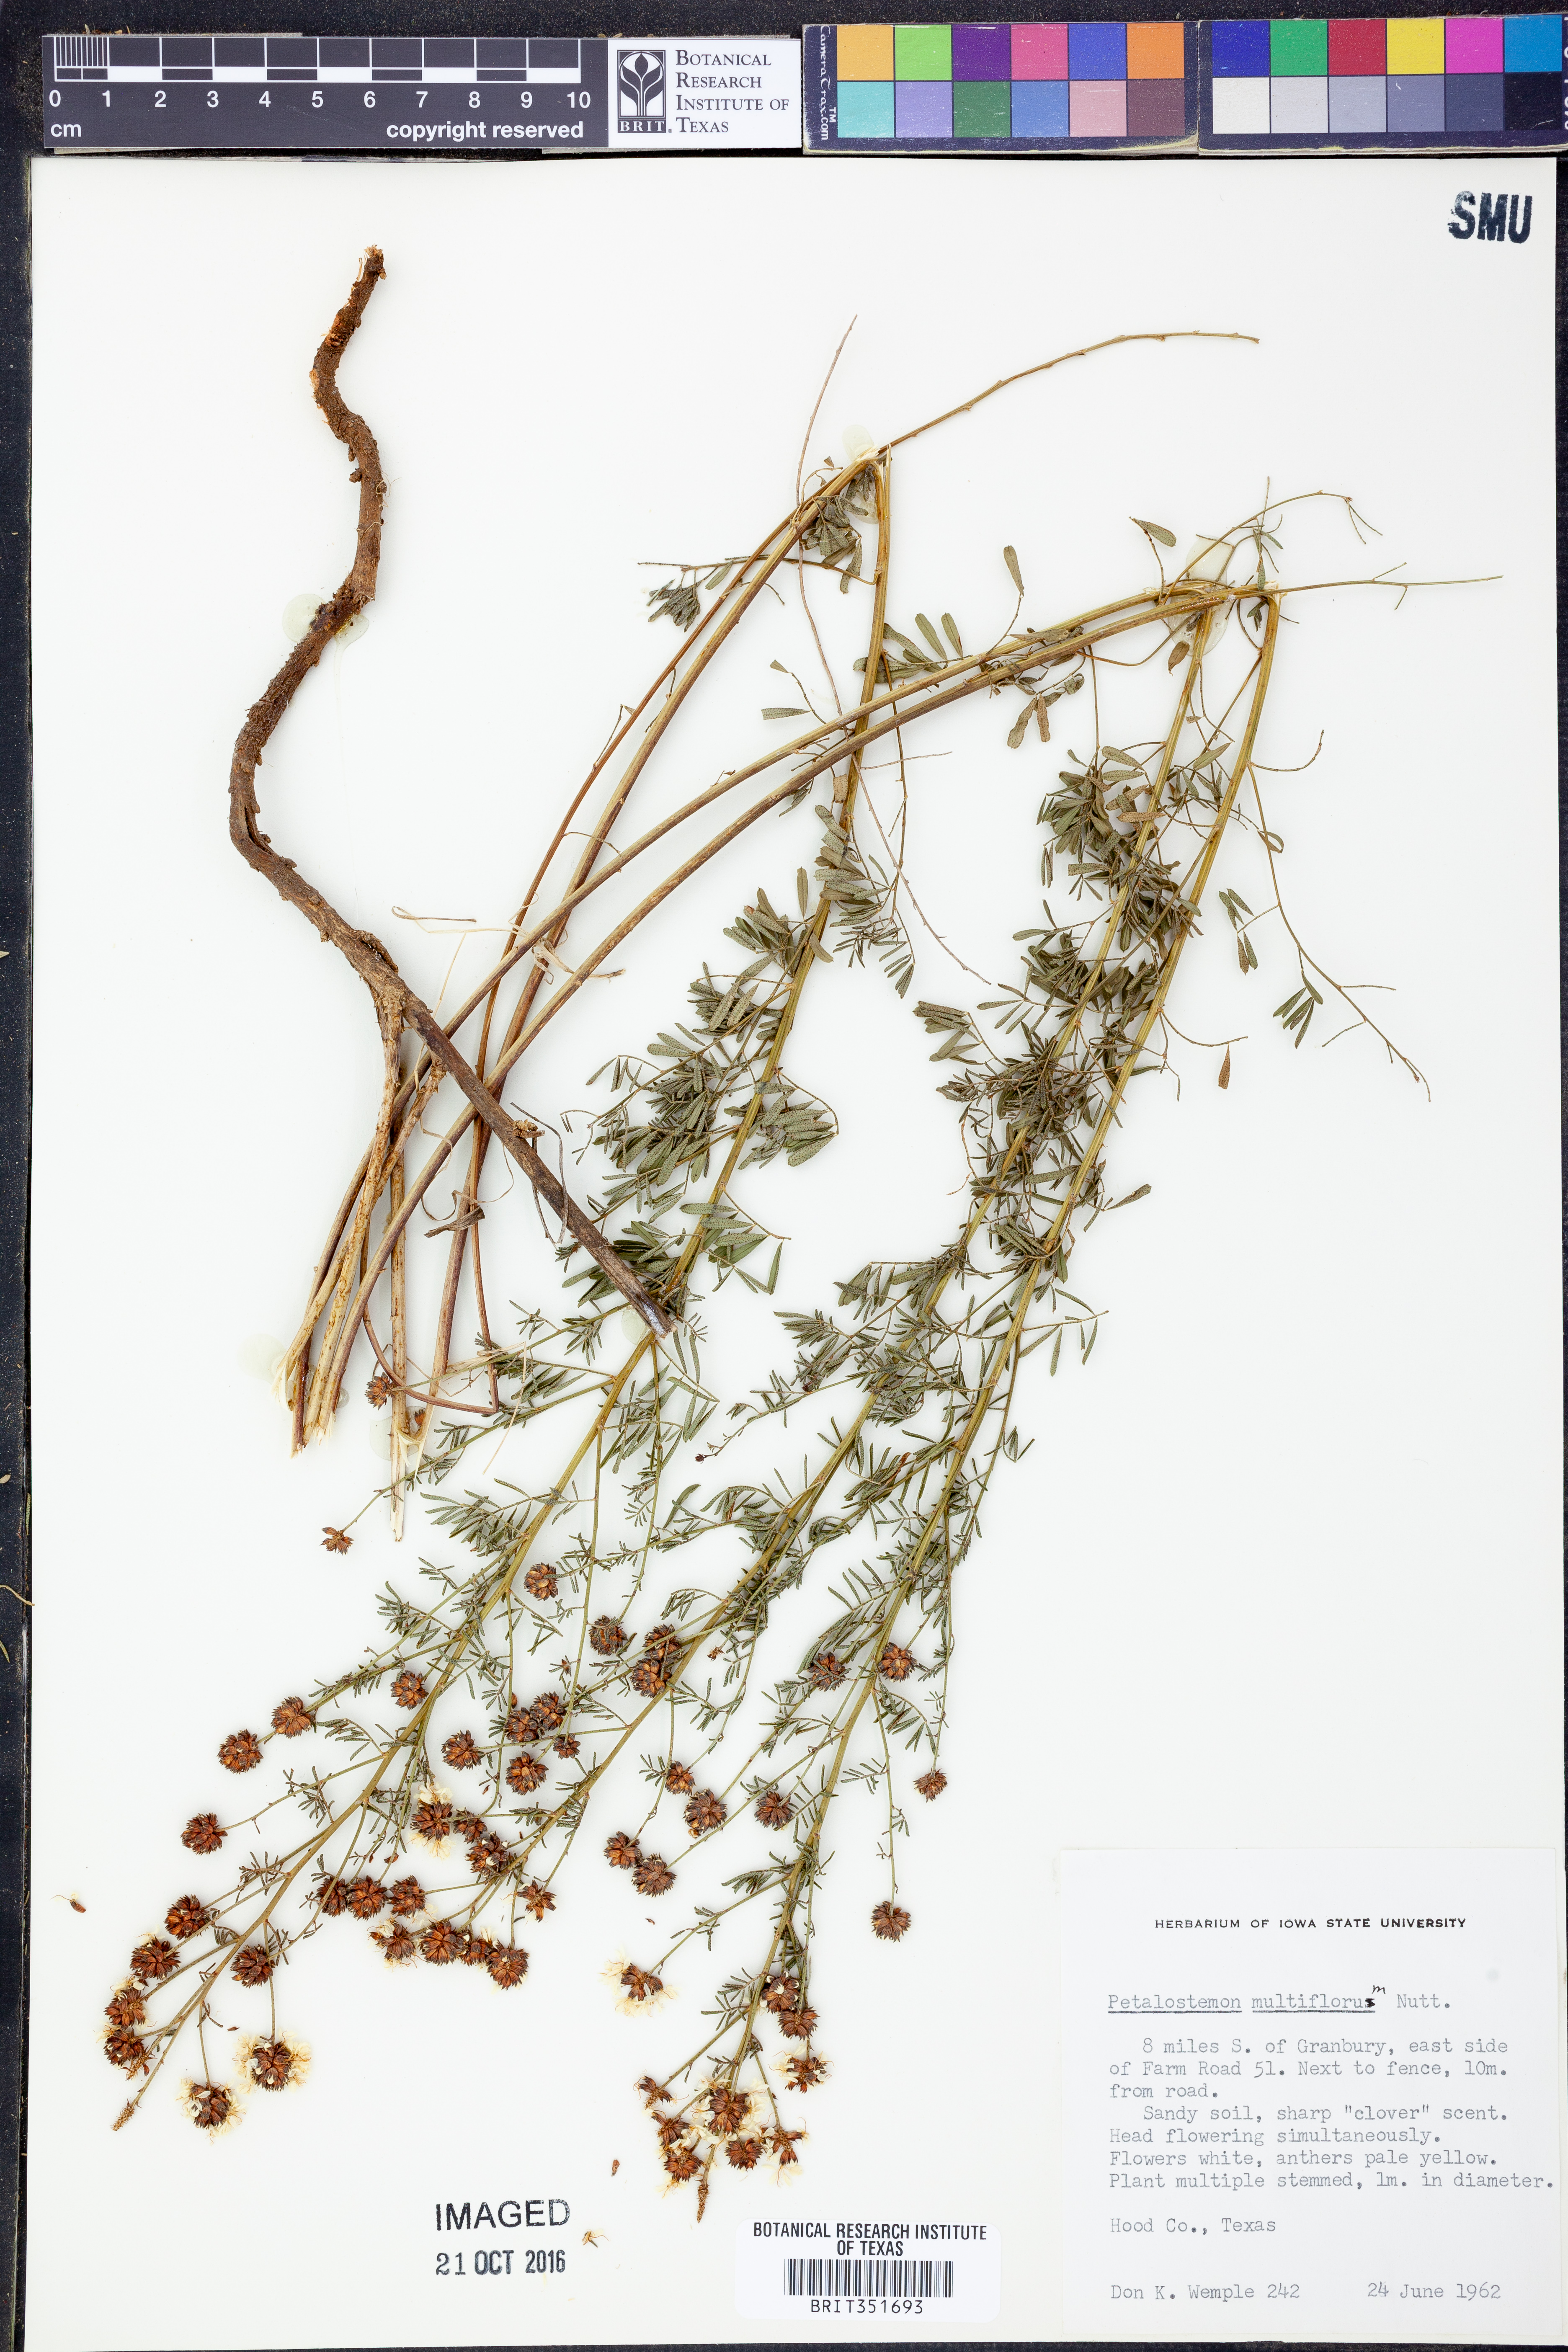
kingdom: Plantae
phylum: Tracheophyta
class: Magnoliopsida
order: Fabales
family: Fabaceae
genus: Dalea
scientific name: Dalea multiflora
